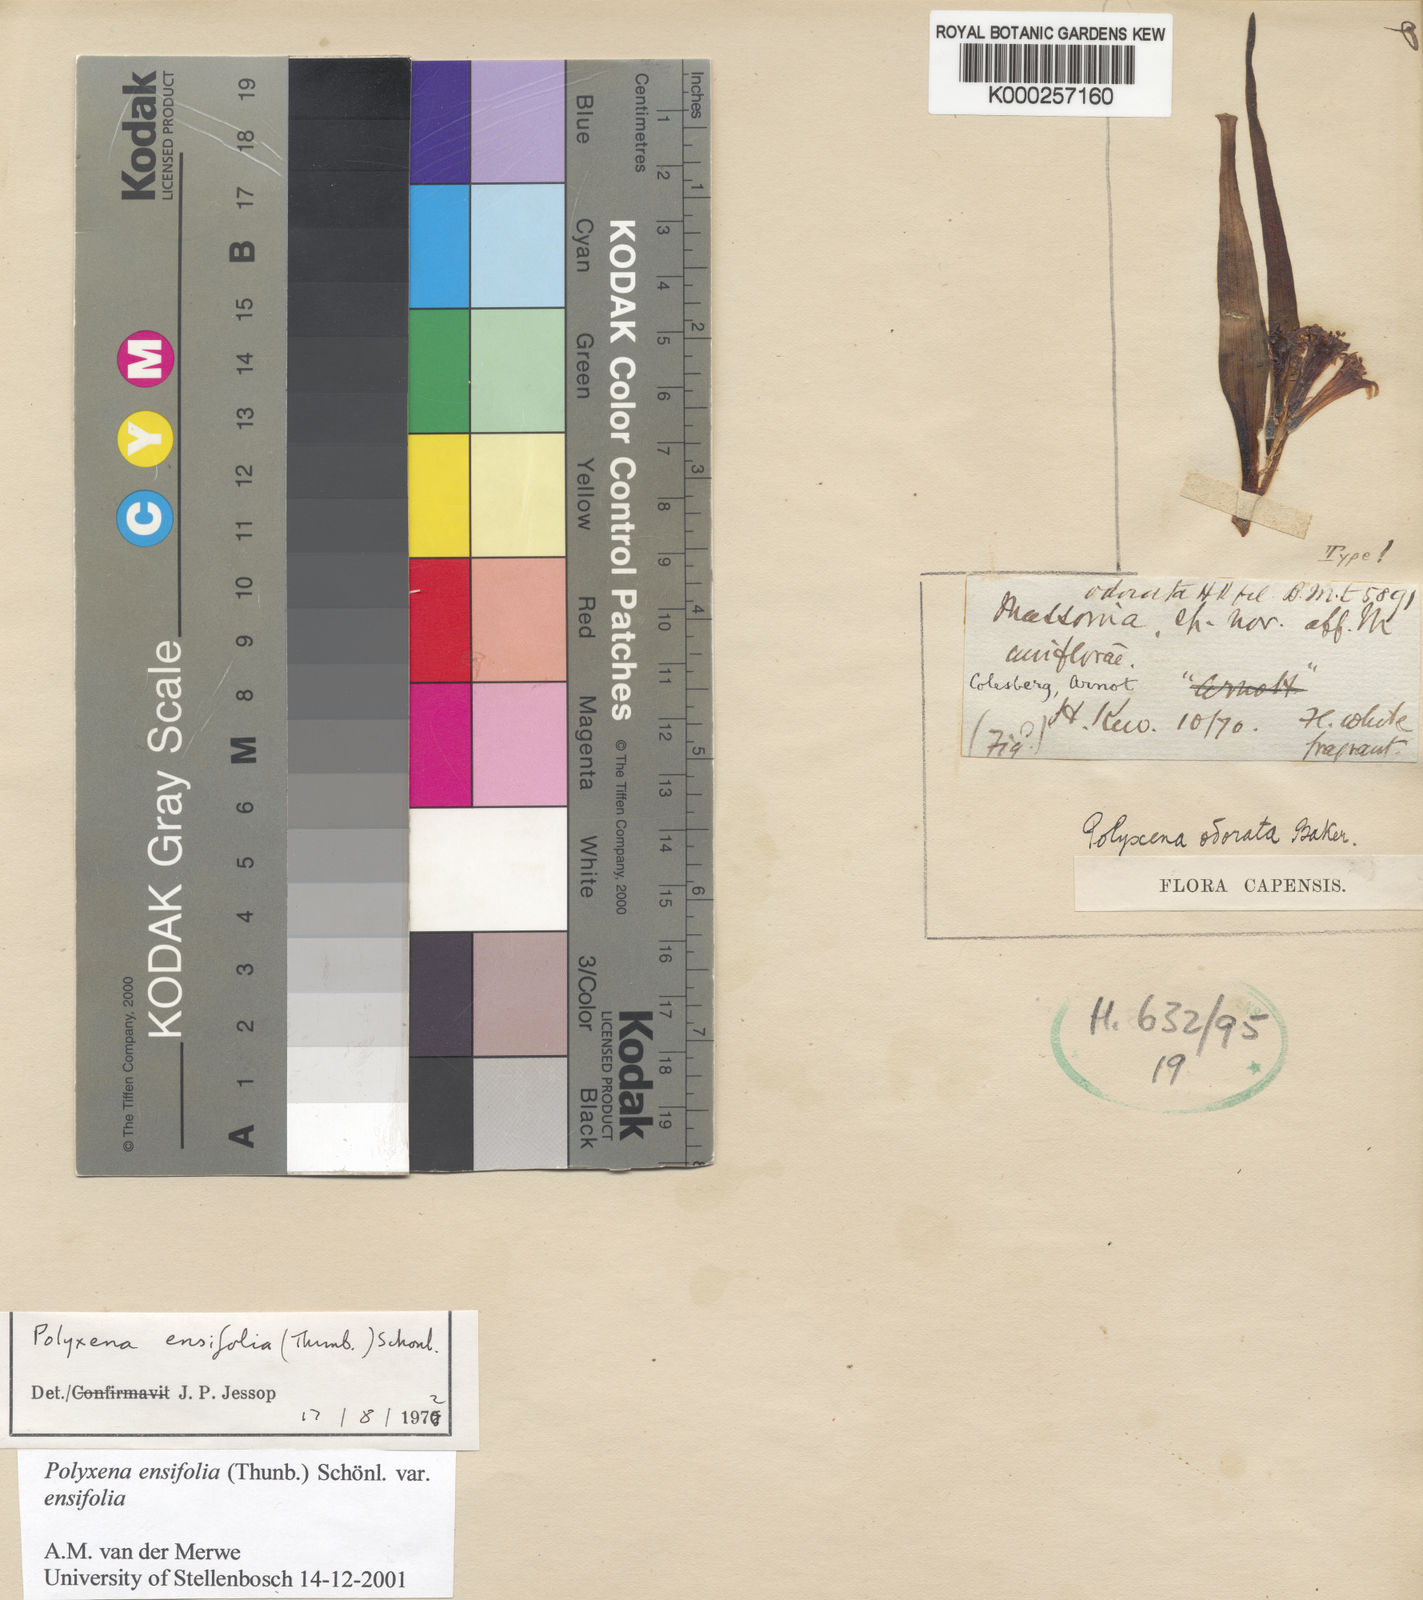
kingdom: Plantae
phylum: Tracheophyta
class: Liliopsida
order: Asparagales
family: Asparagaceae
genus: Lachenalia
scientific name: Lachenalia
